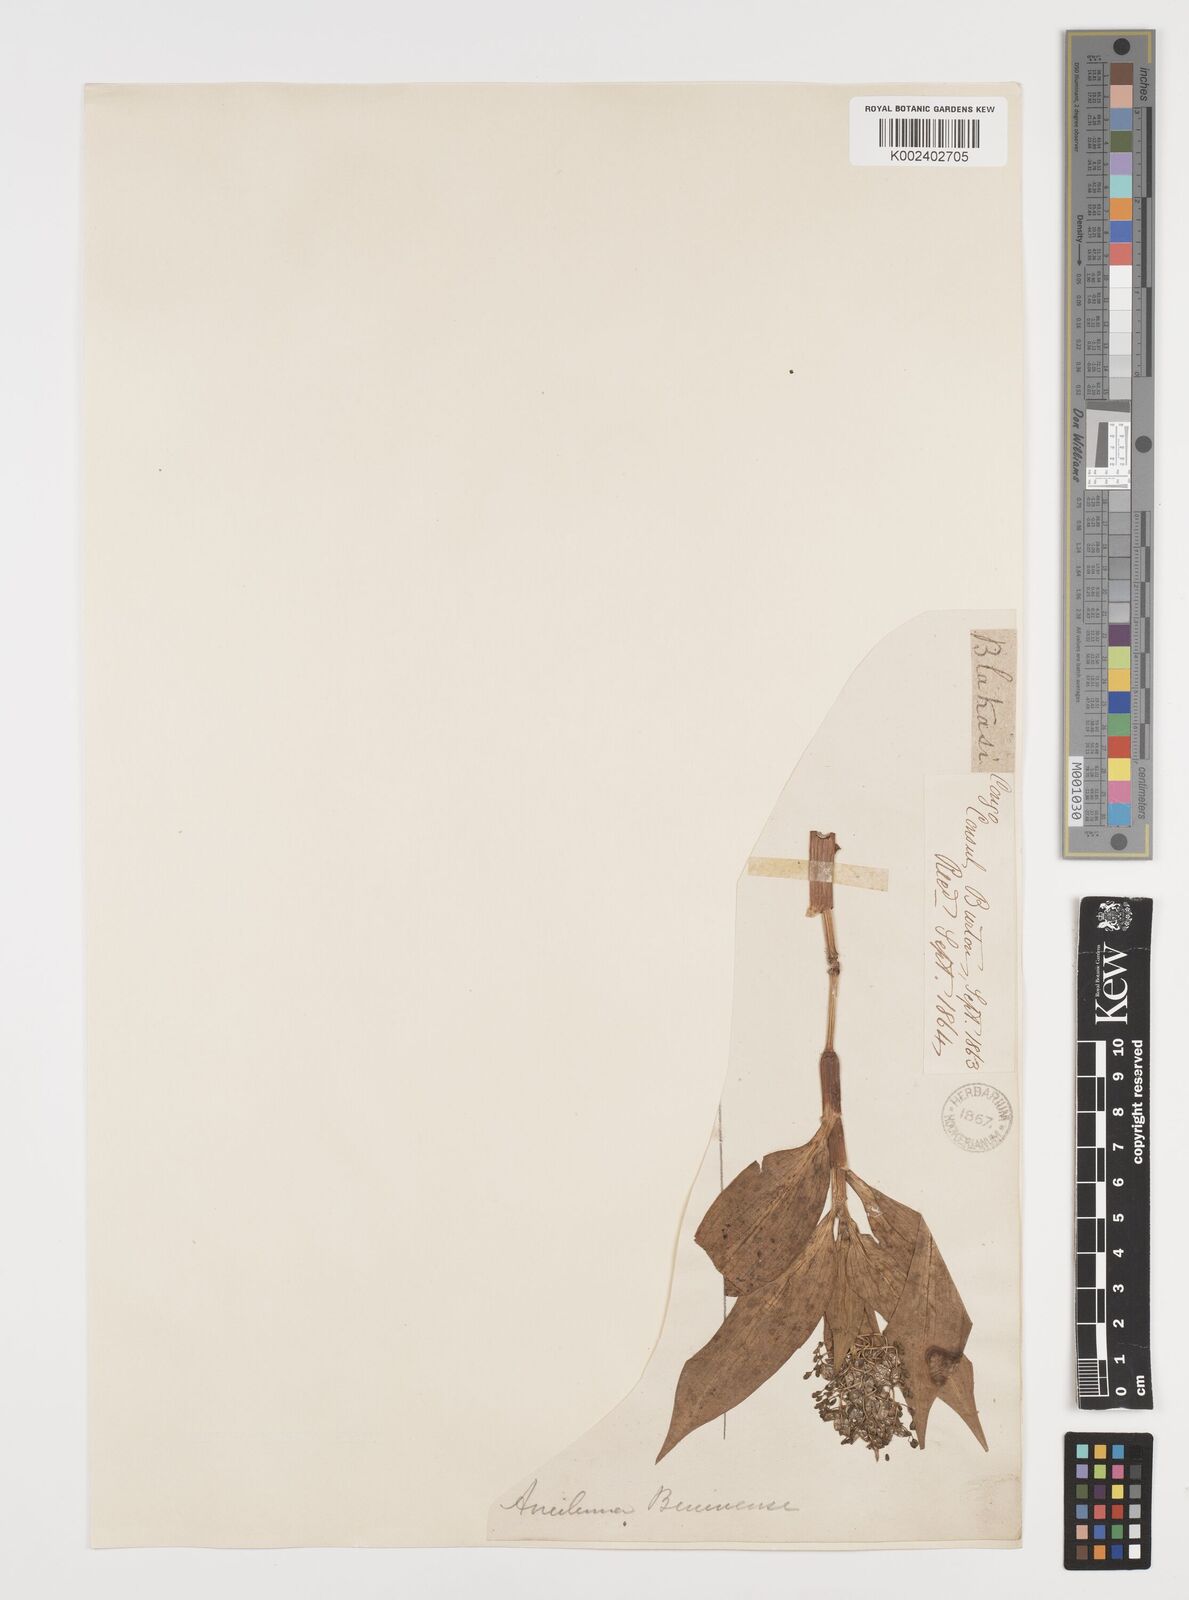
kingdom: Plantae
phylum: Tracheophyta
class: Liliopsida
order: Commelinales
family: Commelinaceae
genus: Aneilema
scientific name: Aneilema beniniense
